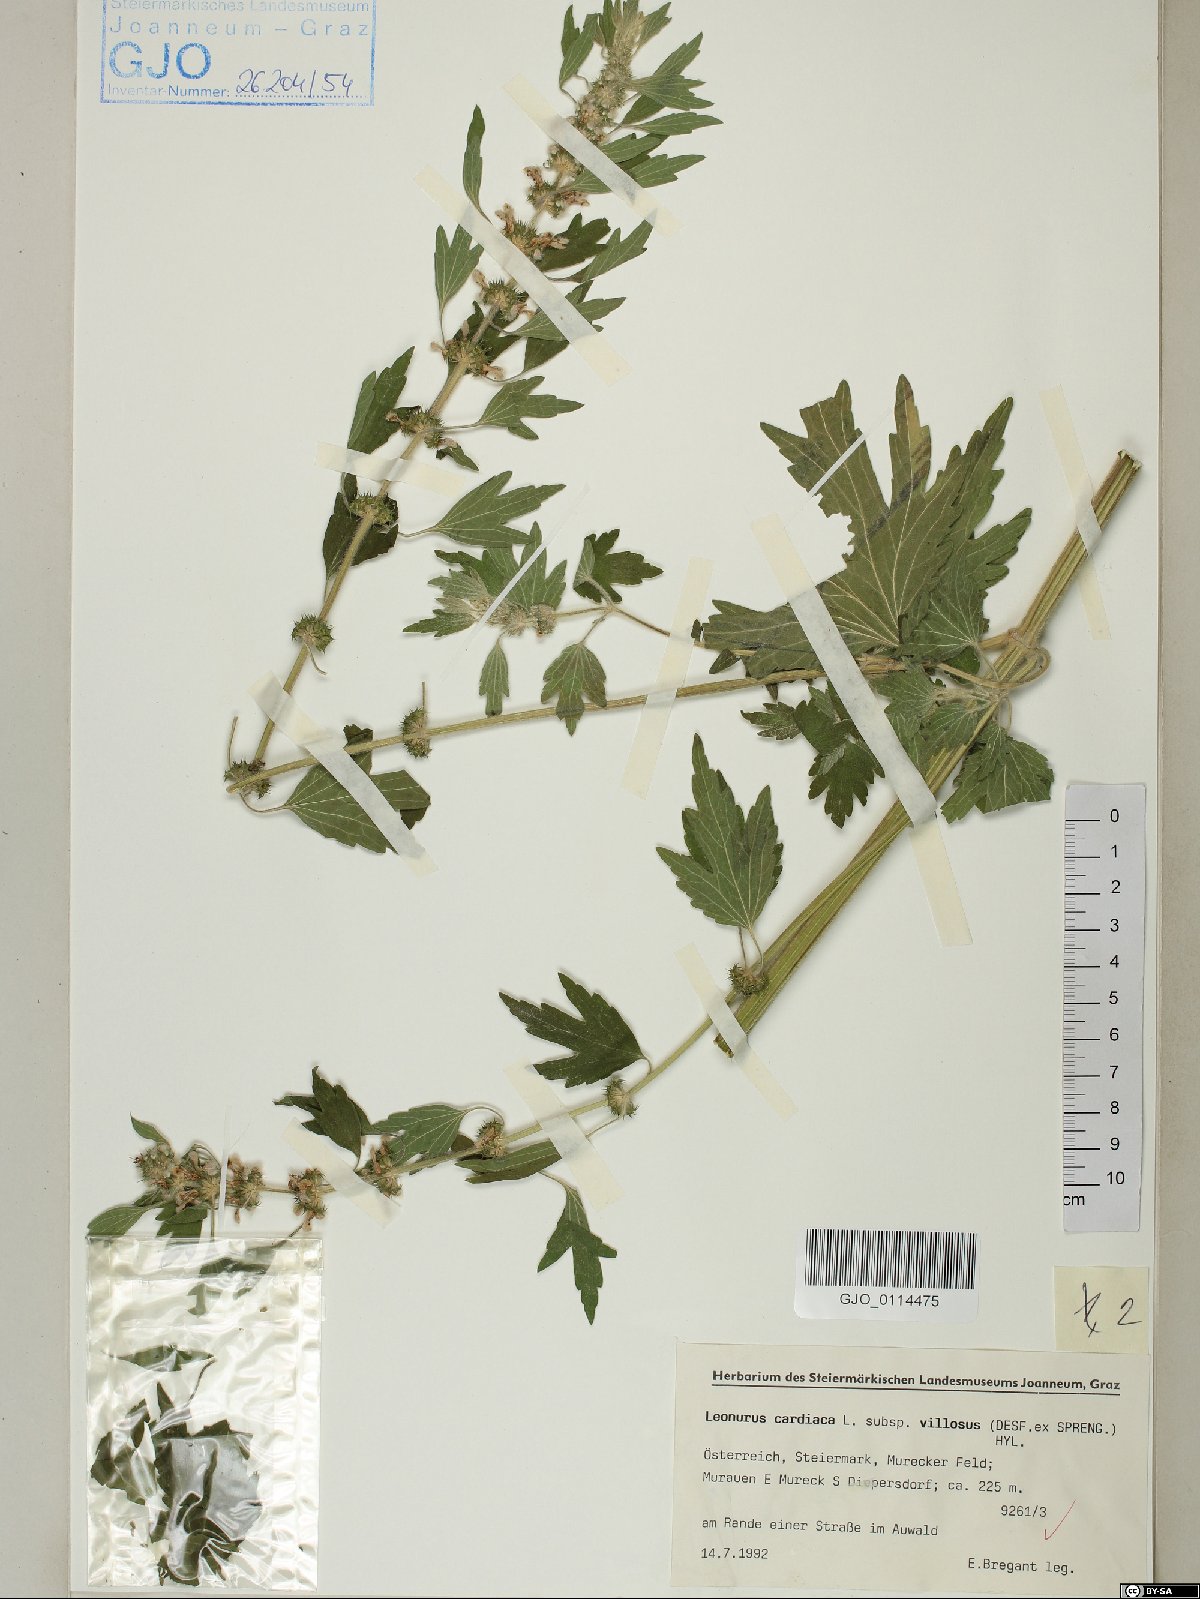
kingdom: Plantae
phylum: Tracheophyta
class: Magnoliopsida
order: Lamiales
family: Lamiaceae
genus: Leonurus
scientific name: Leonurus quinquelobatus
